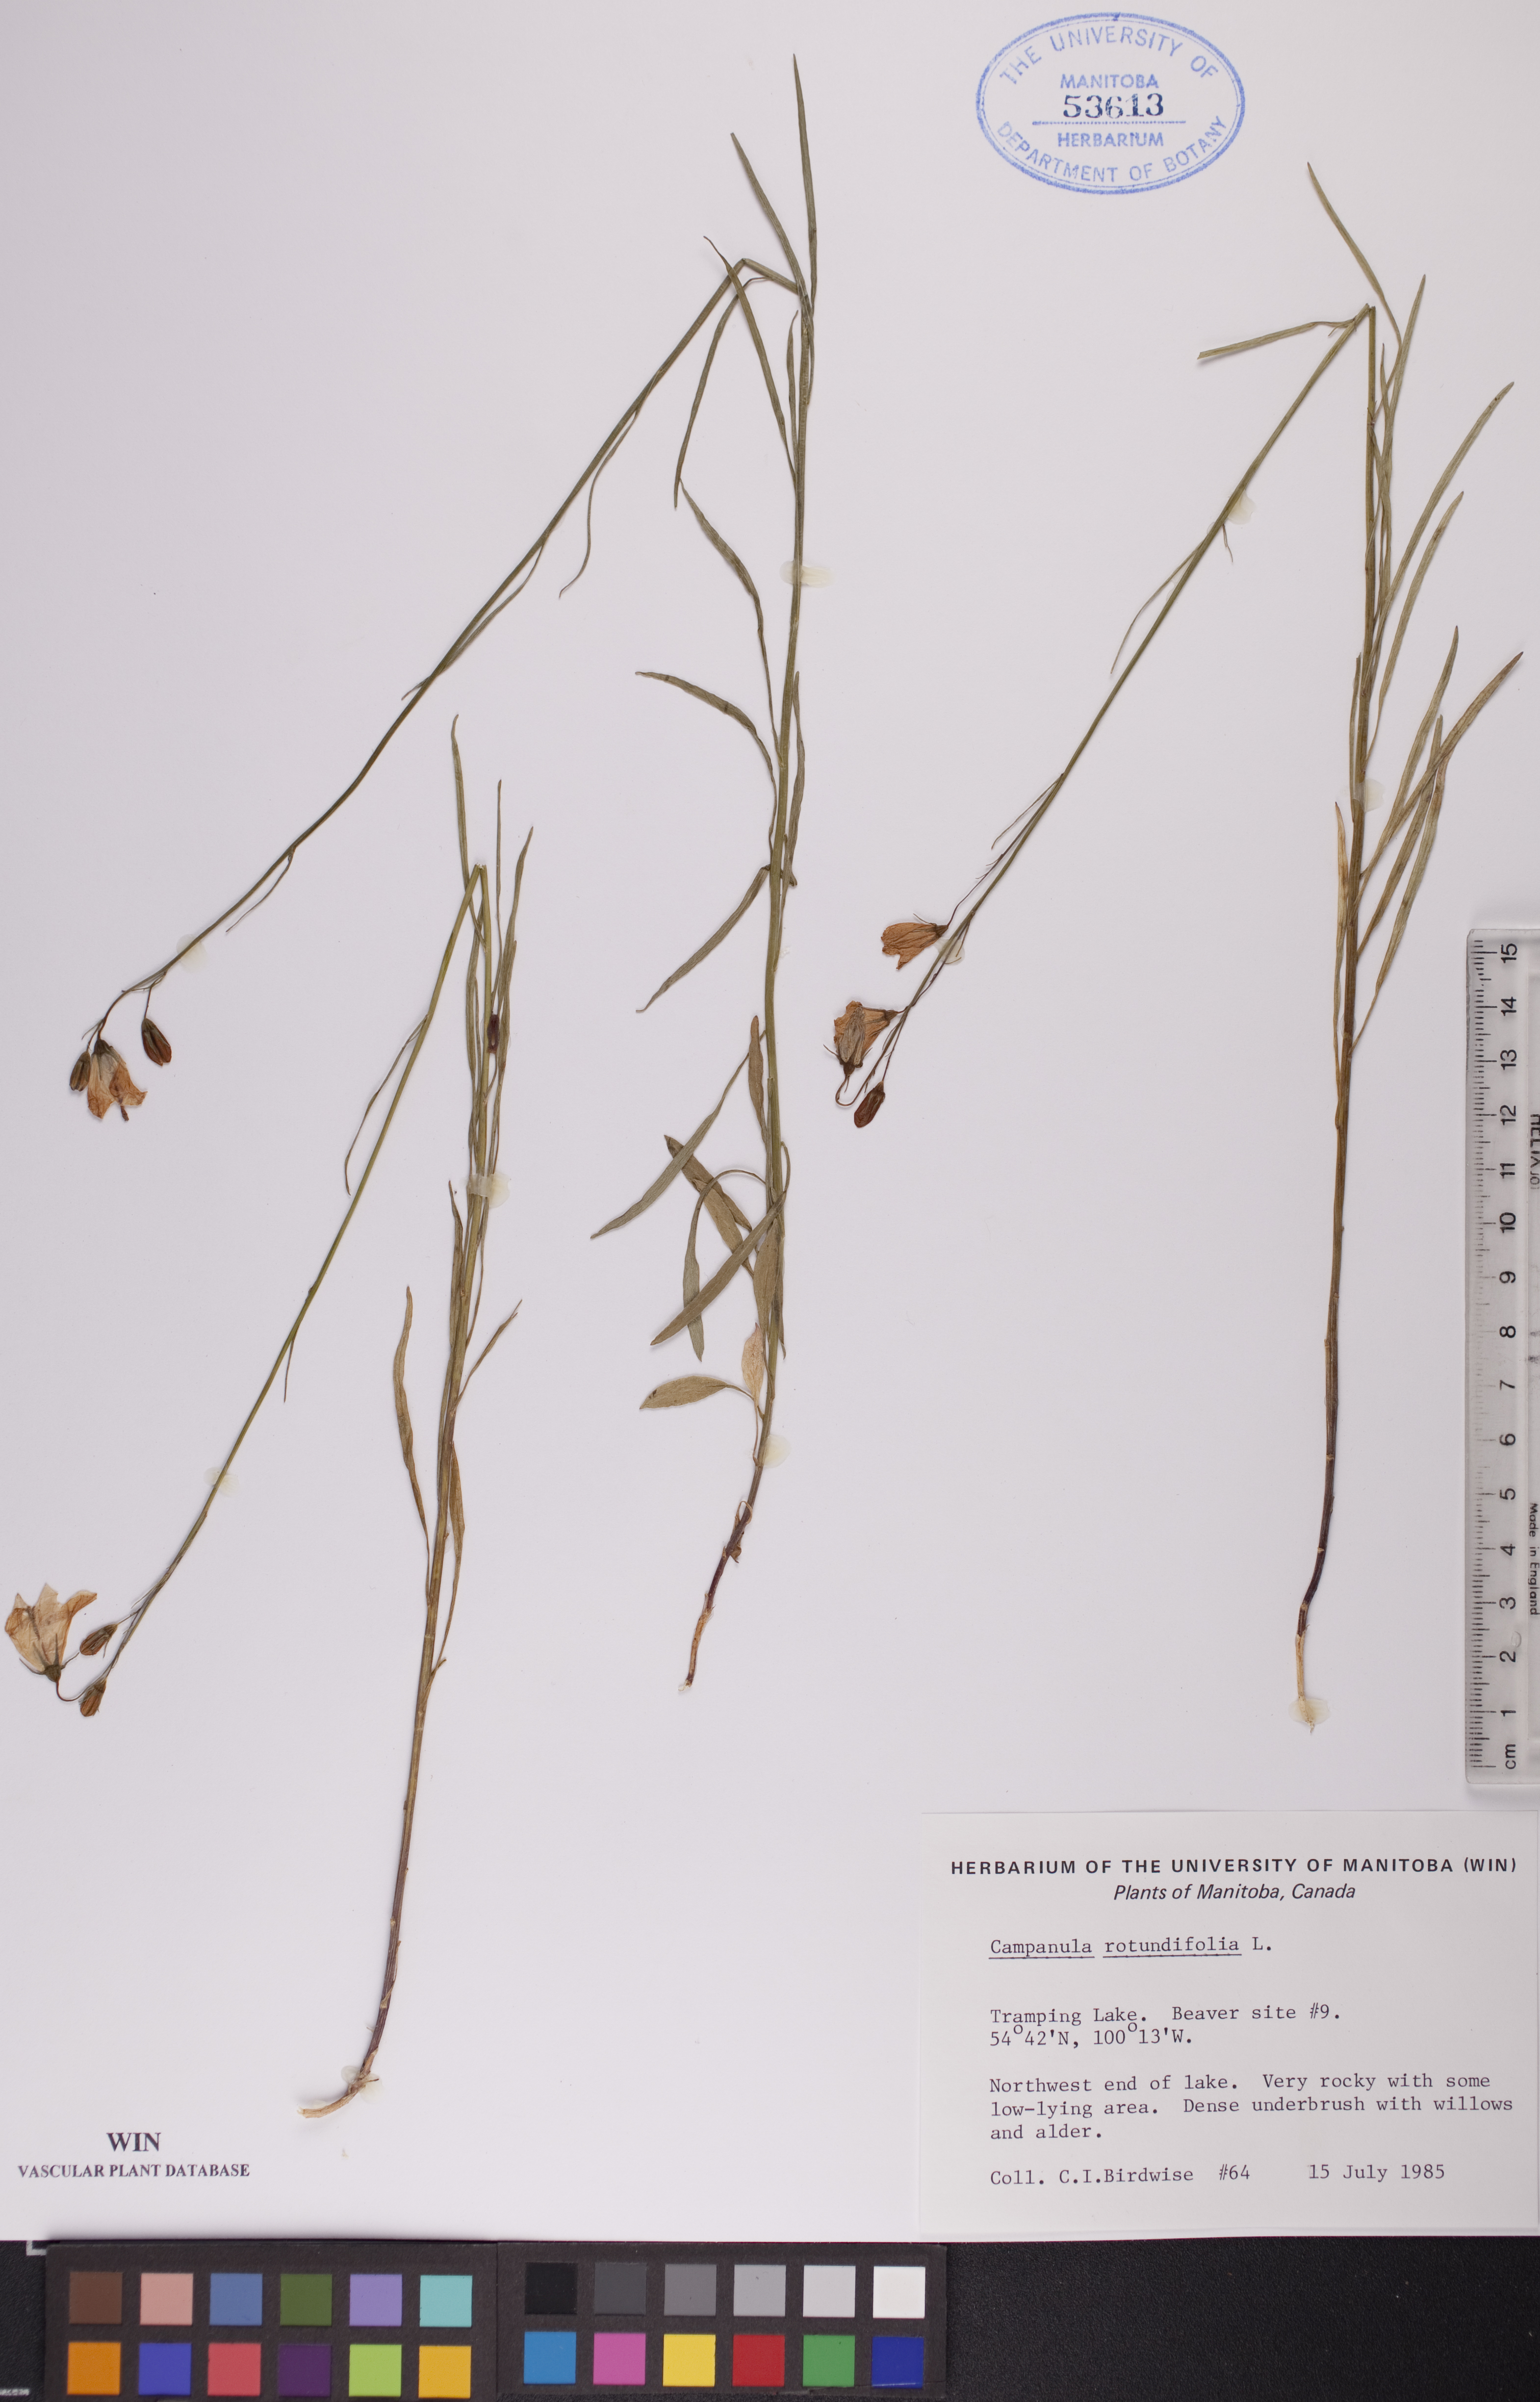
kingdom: Plantae
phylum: Tracheophyta
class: Magnoliopsida
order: Asterales
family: Campanulaceae
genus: Campanula
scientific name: Campanula rotundifolia
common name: Harebell
